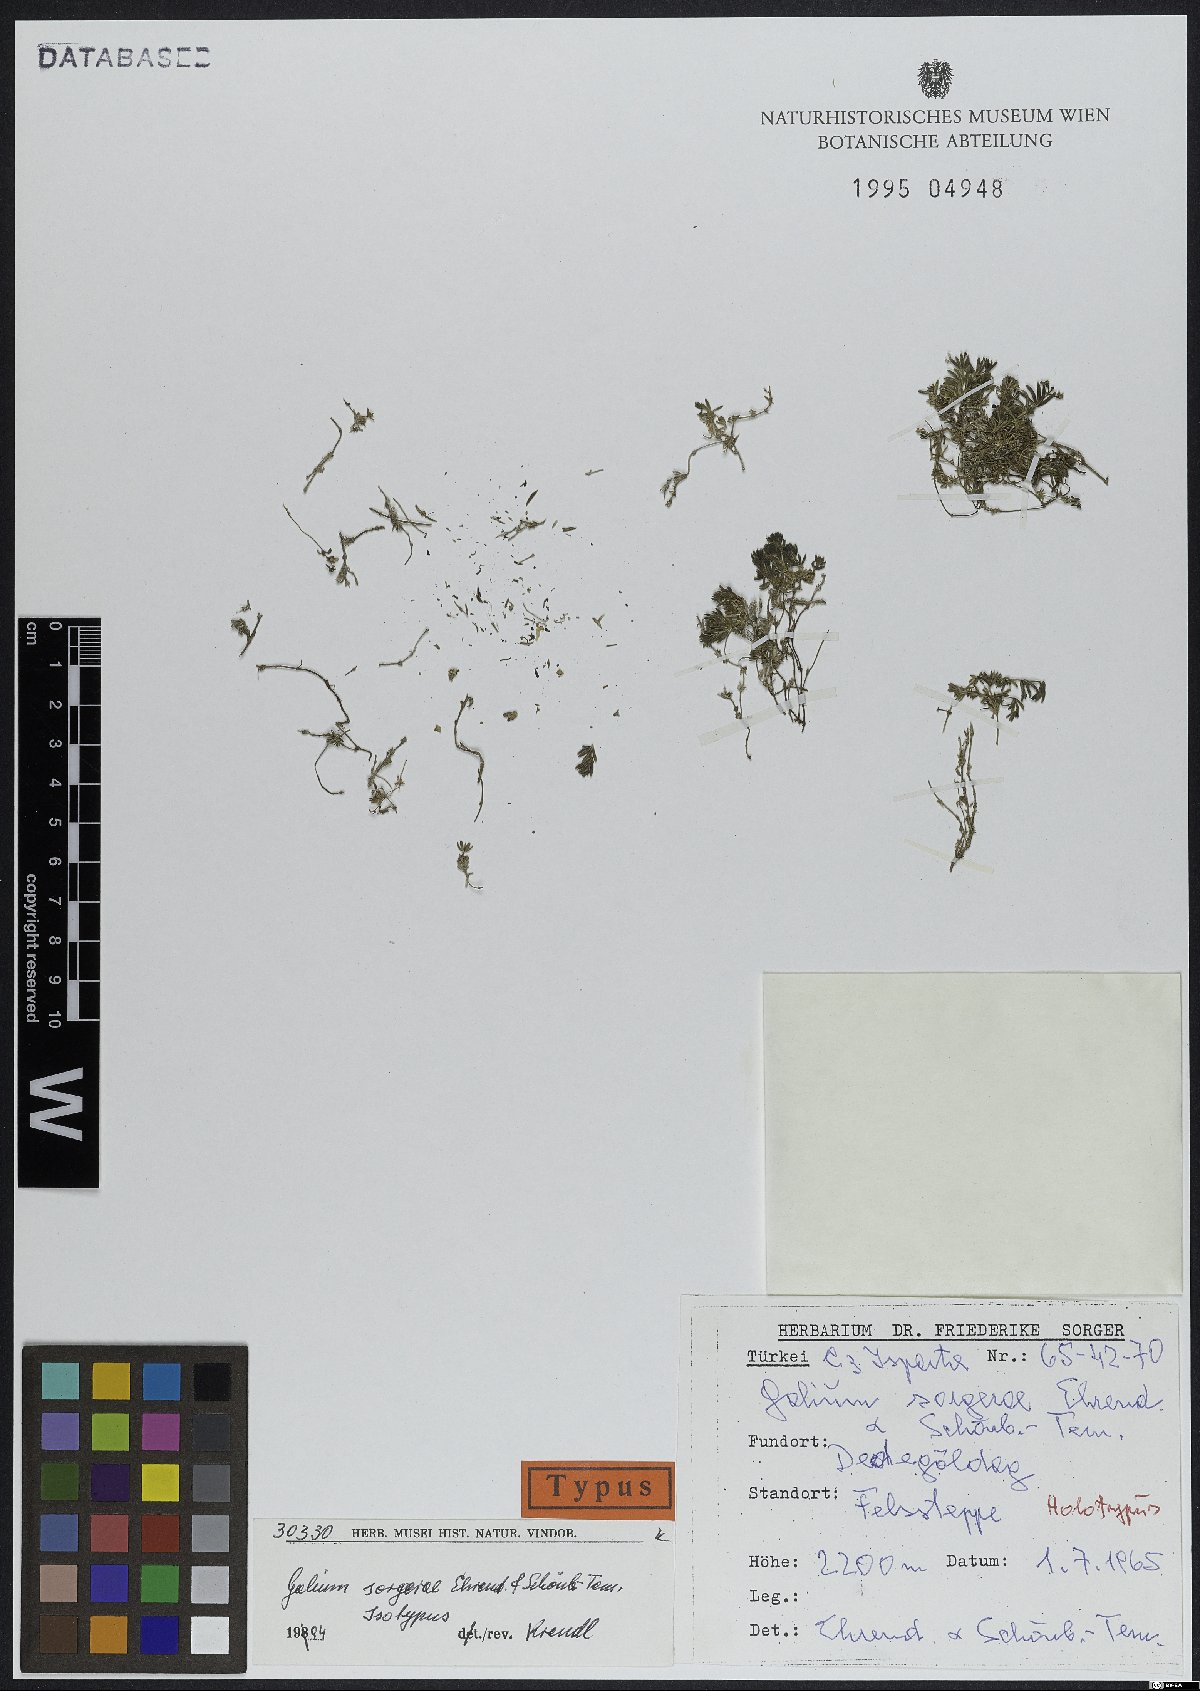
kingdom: Plantae
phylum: Tracheophyta
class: Magnoliopsida
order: Gentianales
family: Rubiaceae
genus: Galium
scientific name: Galium sorgerae
